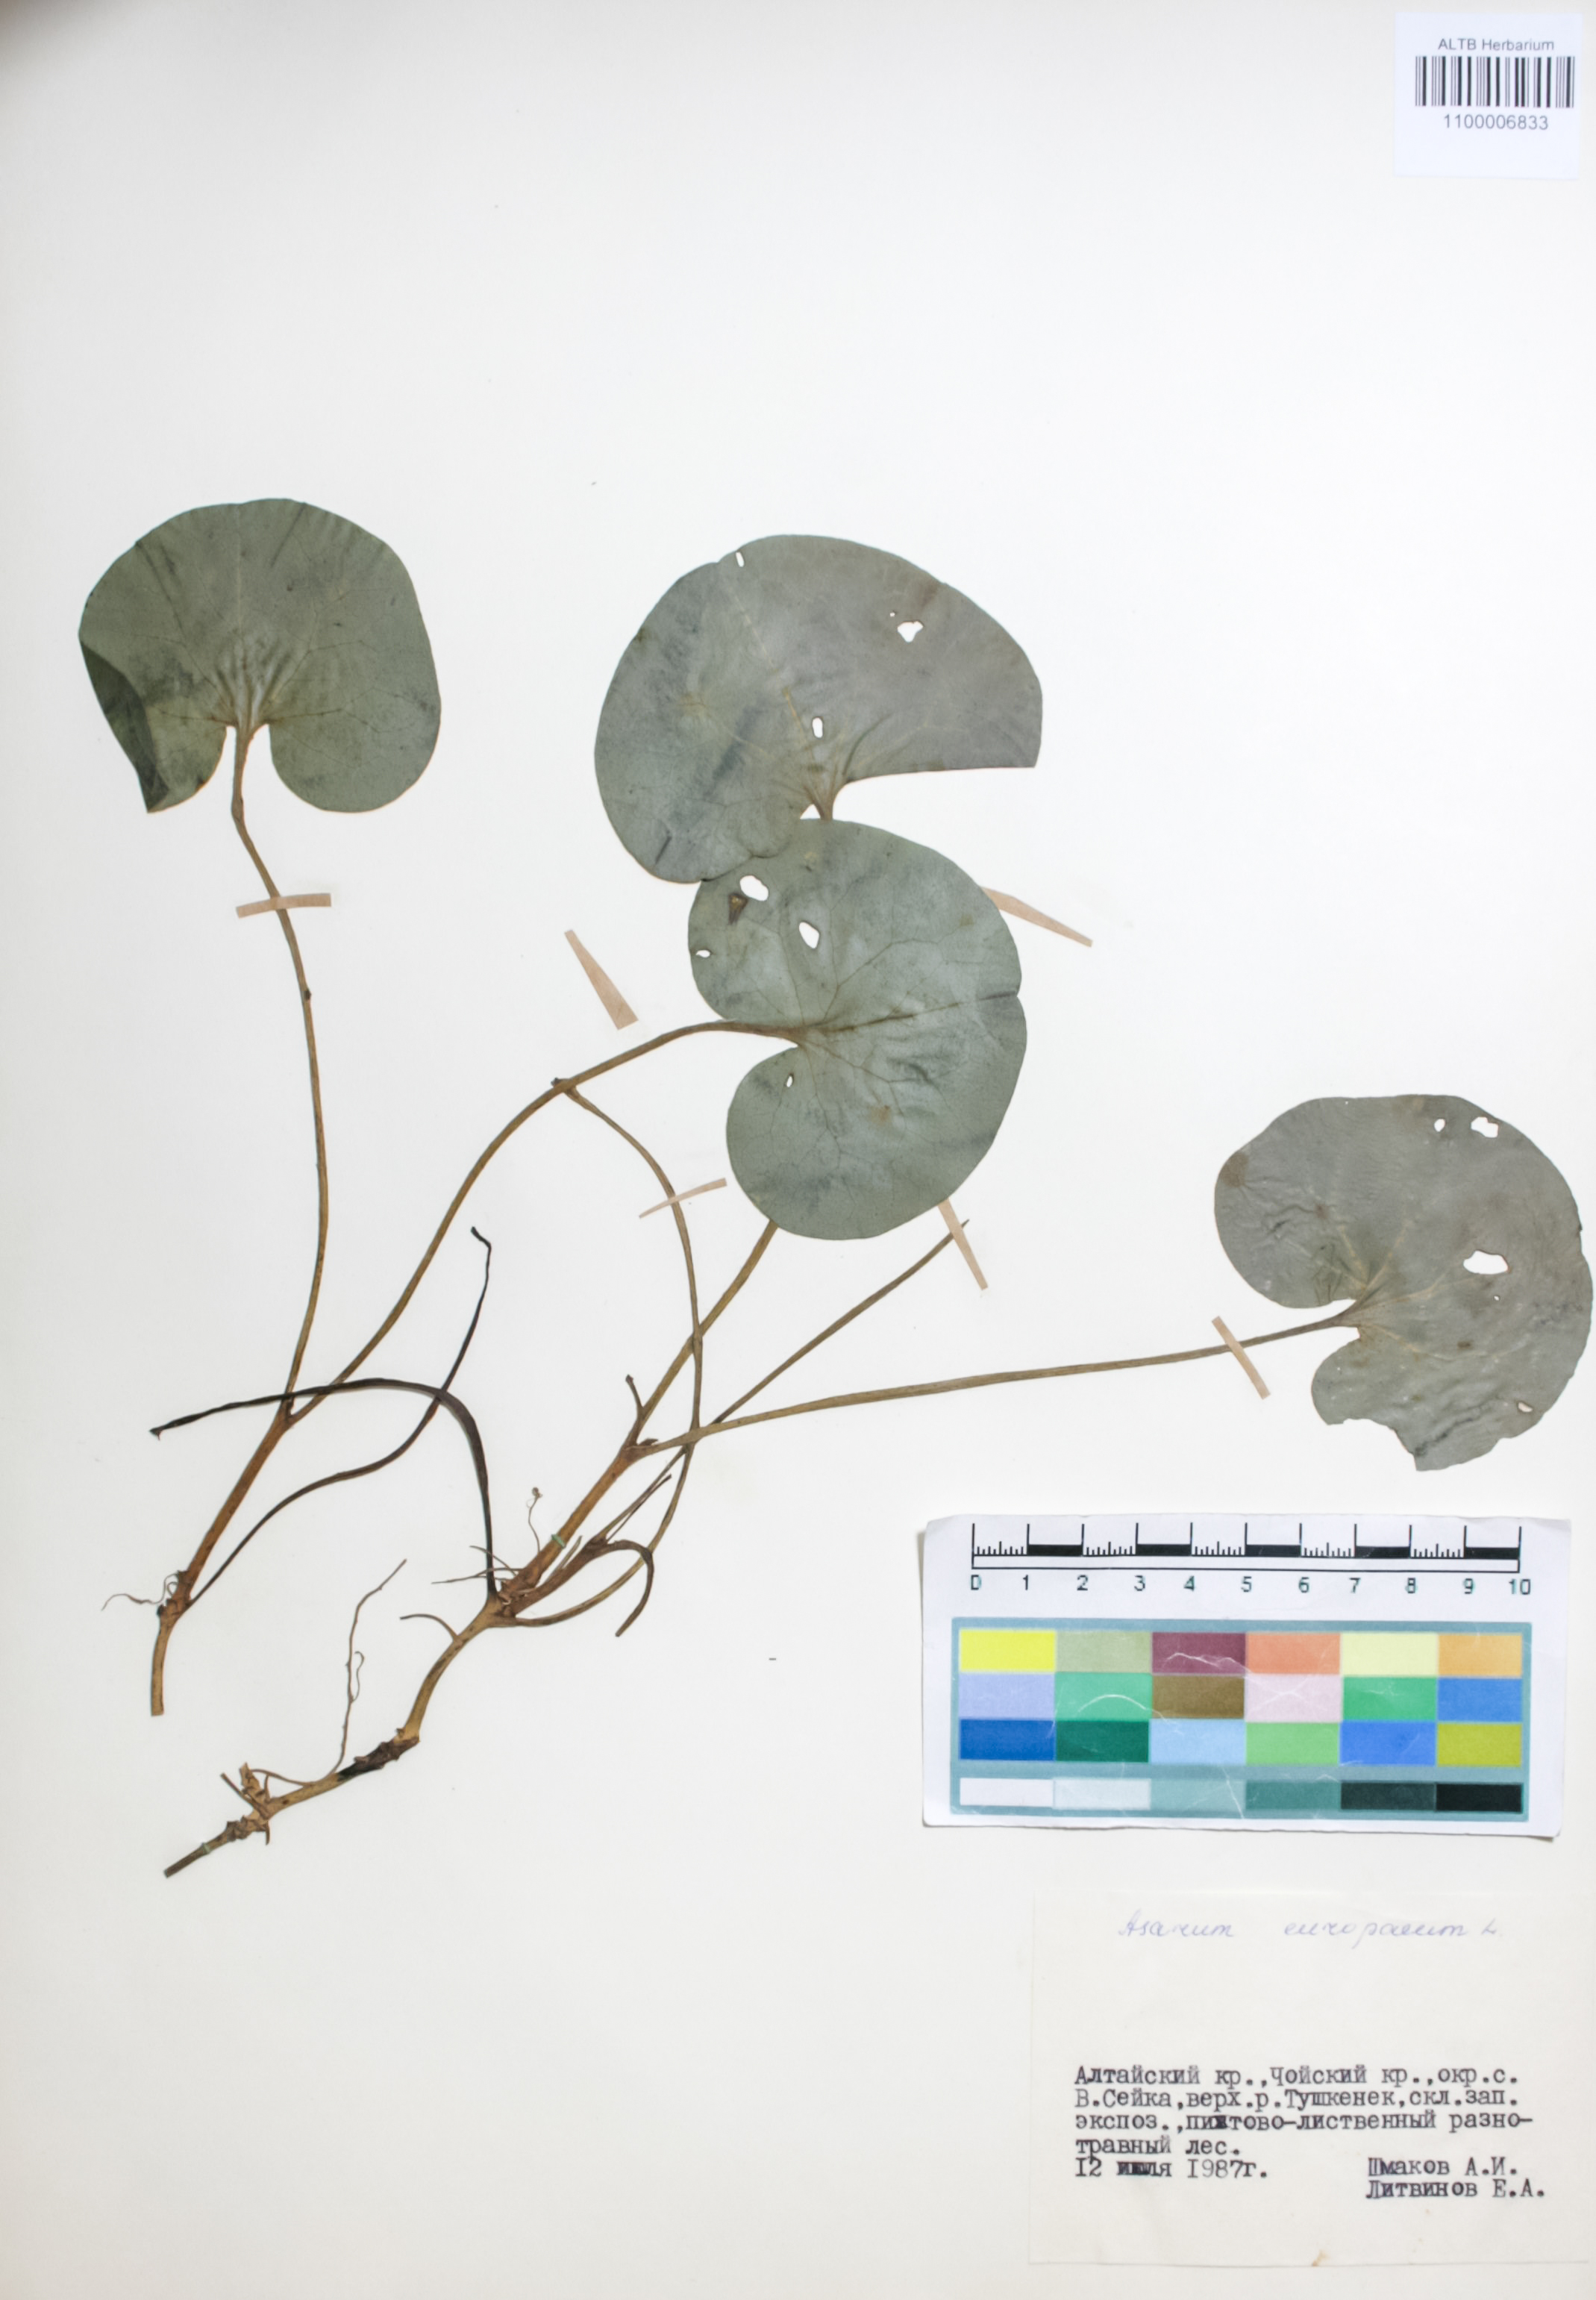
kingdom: Plantae
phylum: Tracheophyta
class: Magnoliopsida
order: Piperales
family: Aristolochiaceae
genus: Asarum
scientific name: Asarum europaeum
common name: Asarabacca
